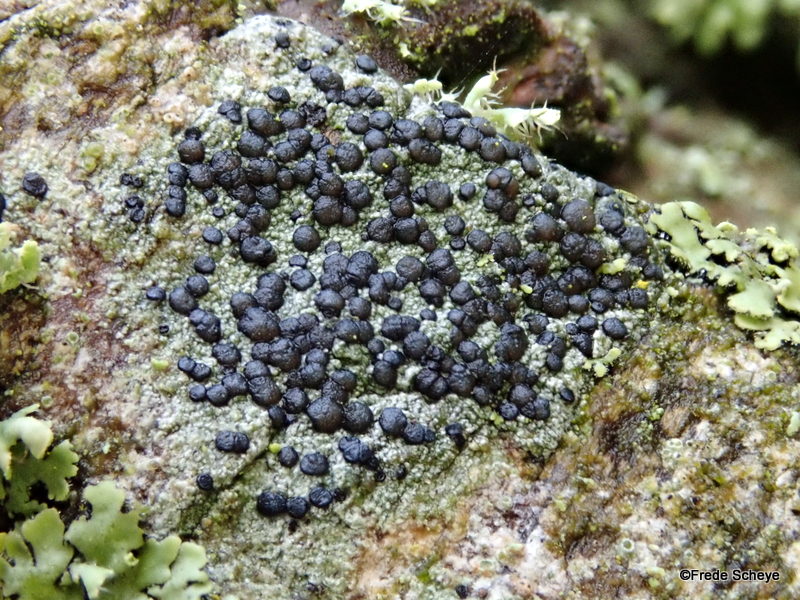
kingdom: Fungi
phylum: Ascomycota
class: Lecanoromycetes
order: Lecanorales
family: Lecanoraceae
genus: Lecidella
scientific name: Lecidella euphorea
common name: vortet skivelav
